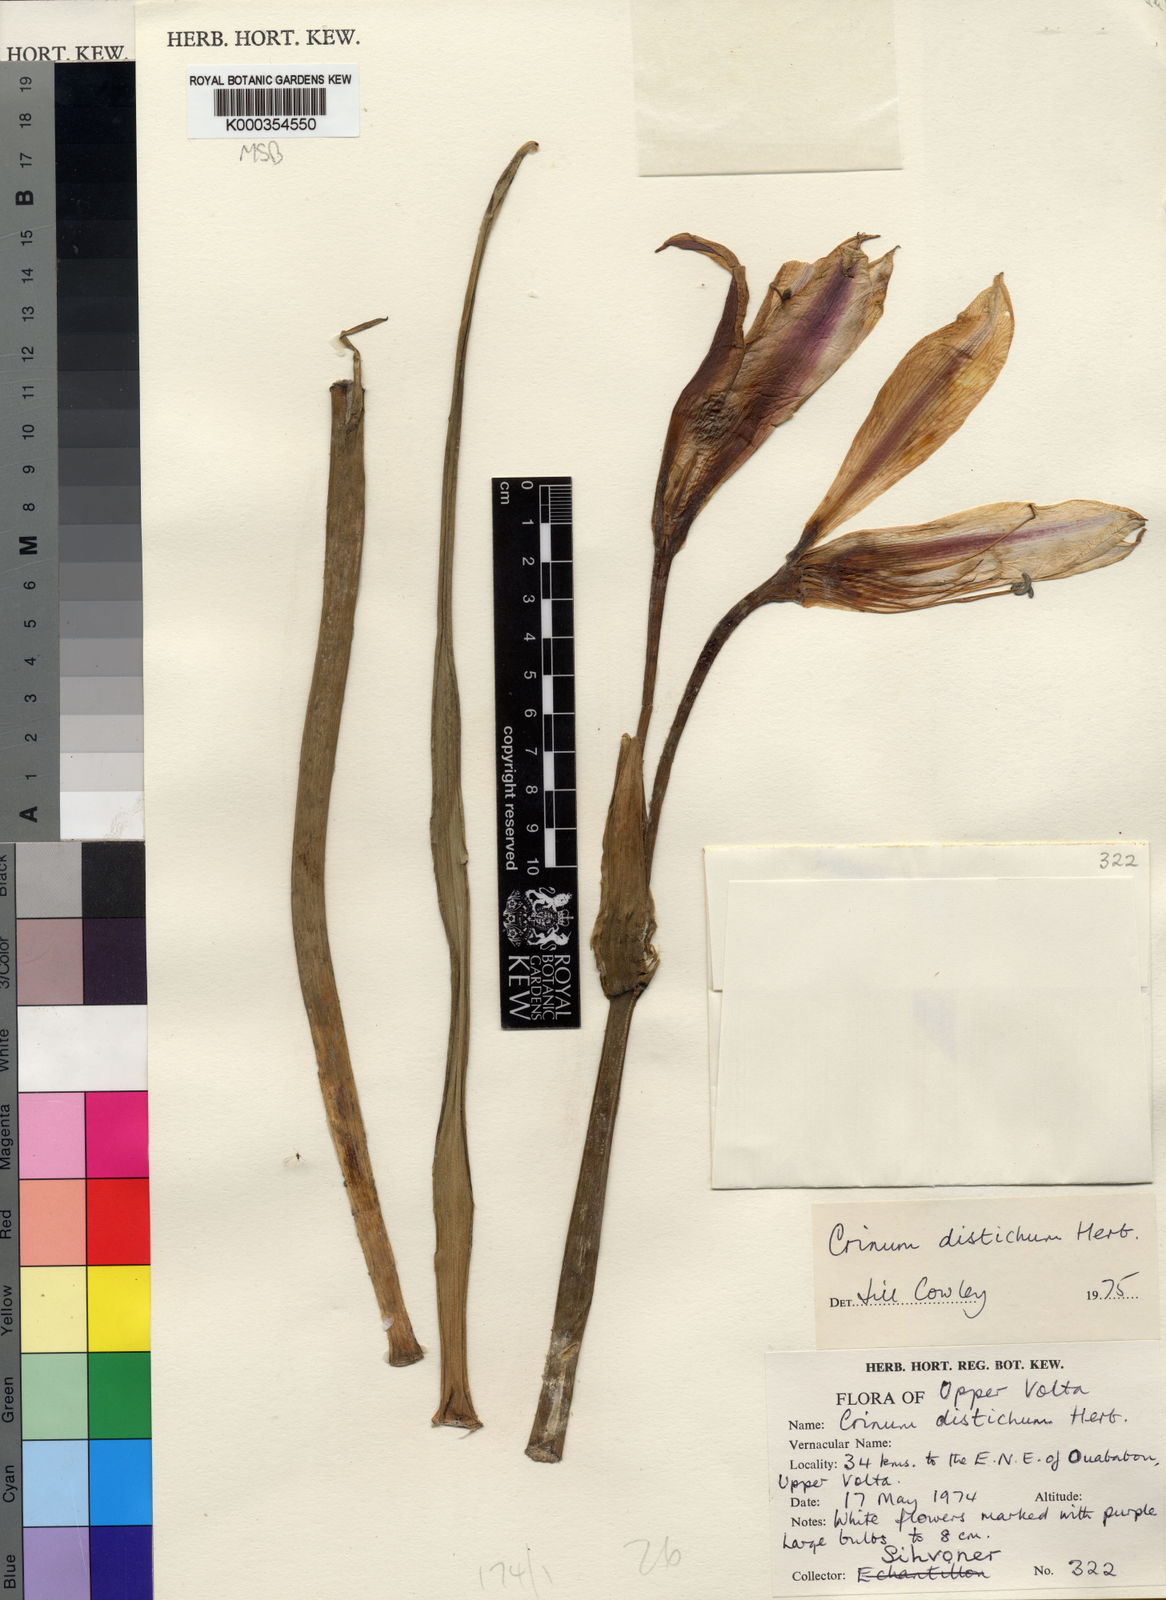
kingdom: Plantae
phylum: Tracheophyta
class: Liliopsida
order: Asparagales
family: Amaryllidaceae
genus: Crinum
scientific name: Crinum zeylanicum
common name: Ceylon swamplily
